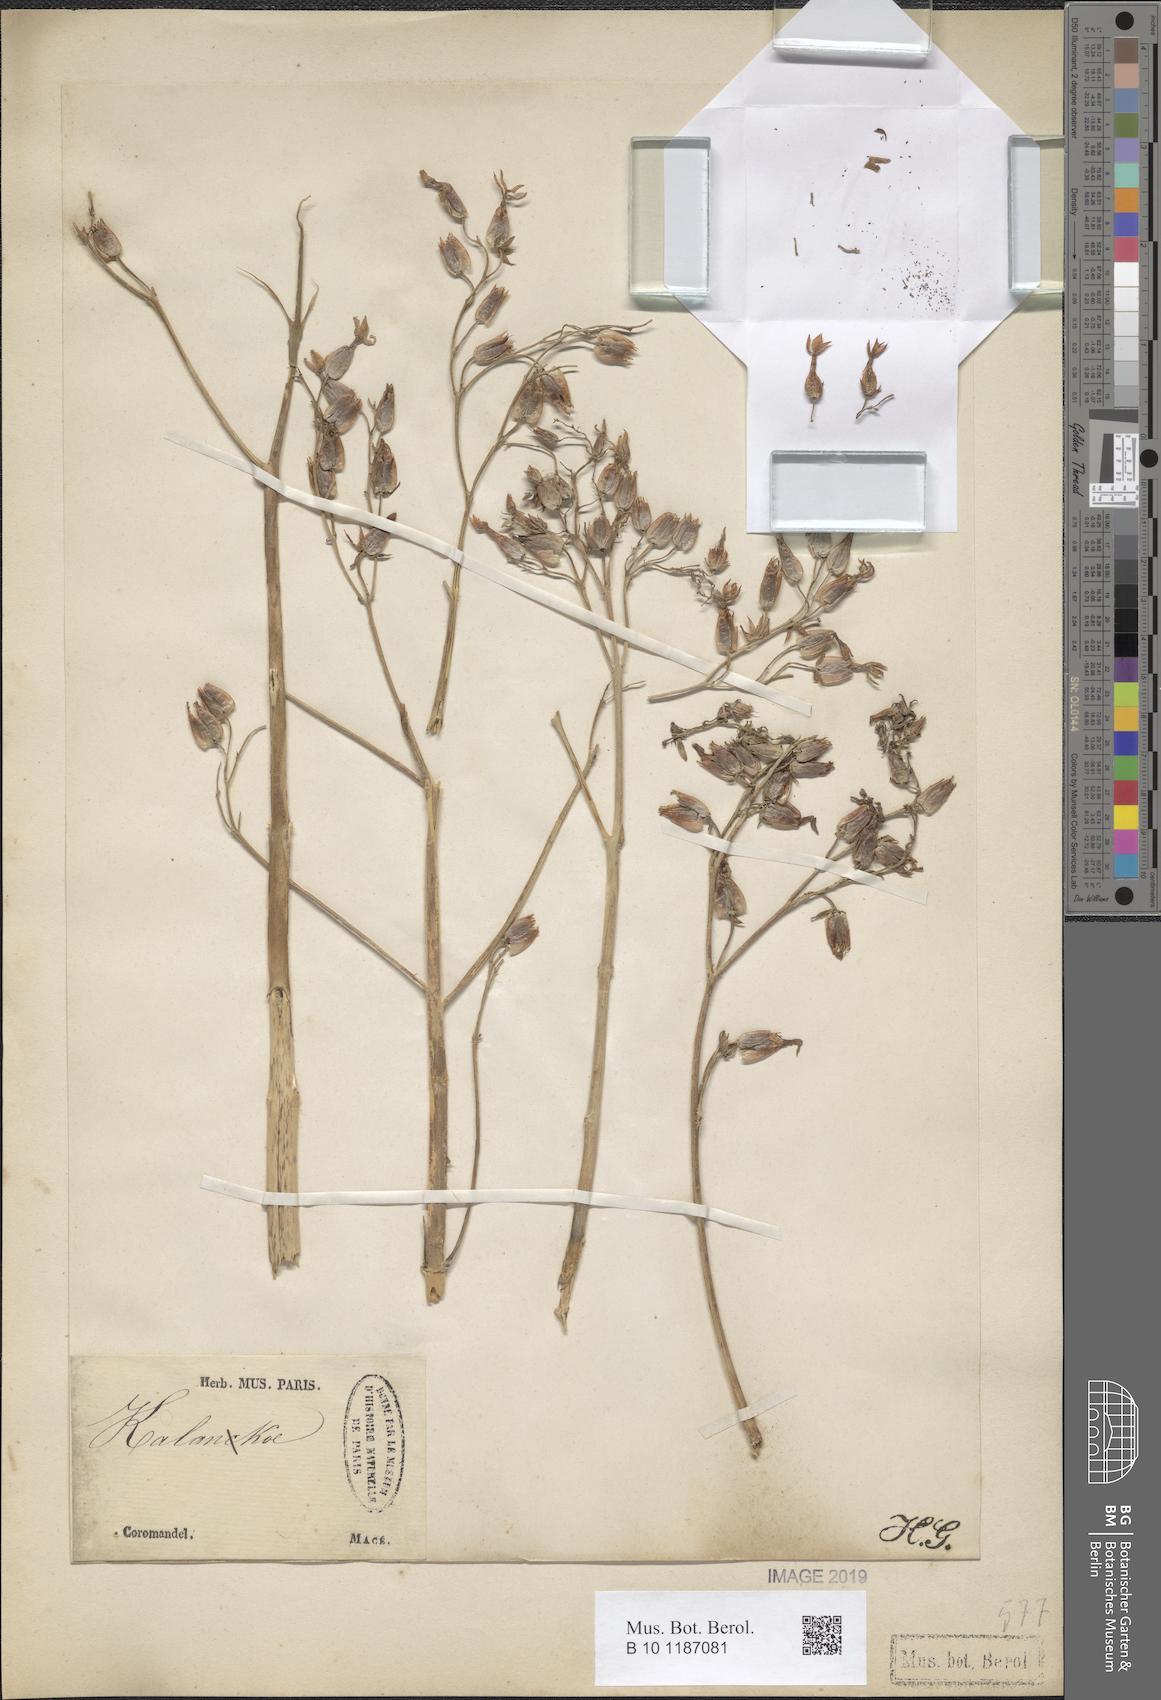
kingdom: Plantae
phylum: Tracheophyta
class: Magnoliopsida
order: Saxifragales
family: Crassulaceae
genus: Kalanchoe
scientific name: Kalanchoe
